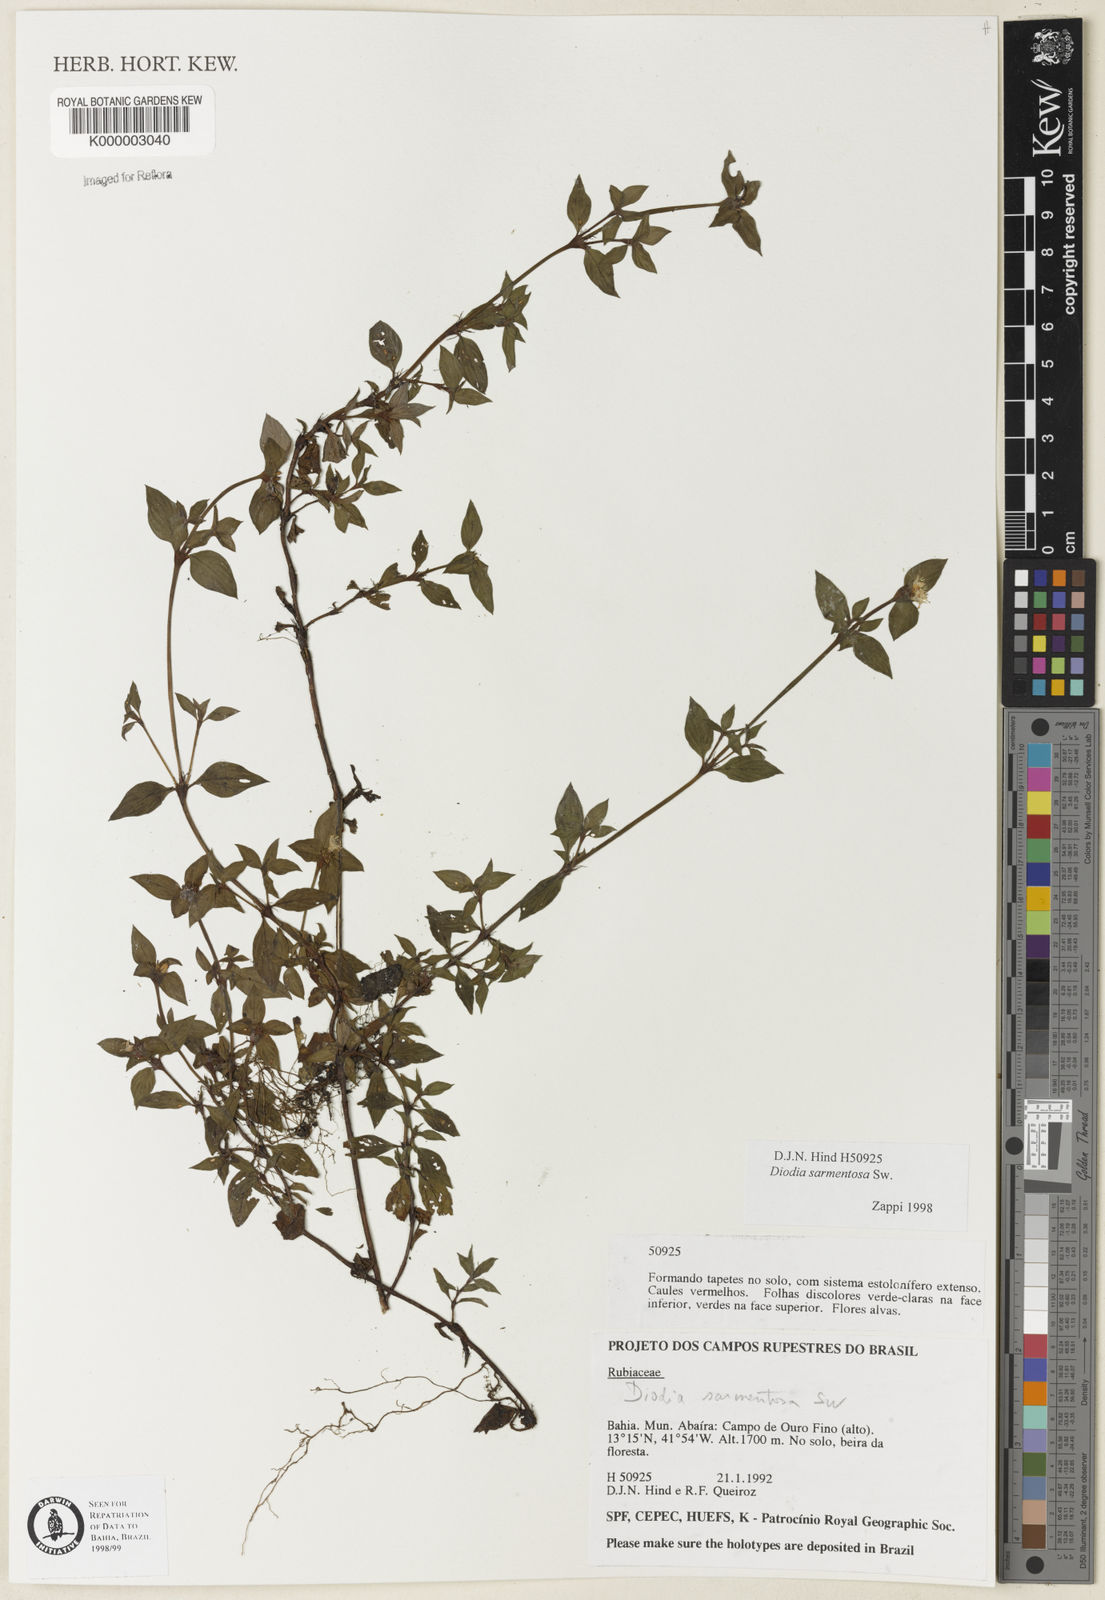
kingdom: Plantae
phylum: Tracheophyta
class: Magnoliopsida
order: Gentianales
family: Rubiaceae
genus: Hexasepalum
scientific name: Hexasepalum sarmentosum
